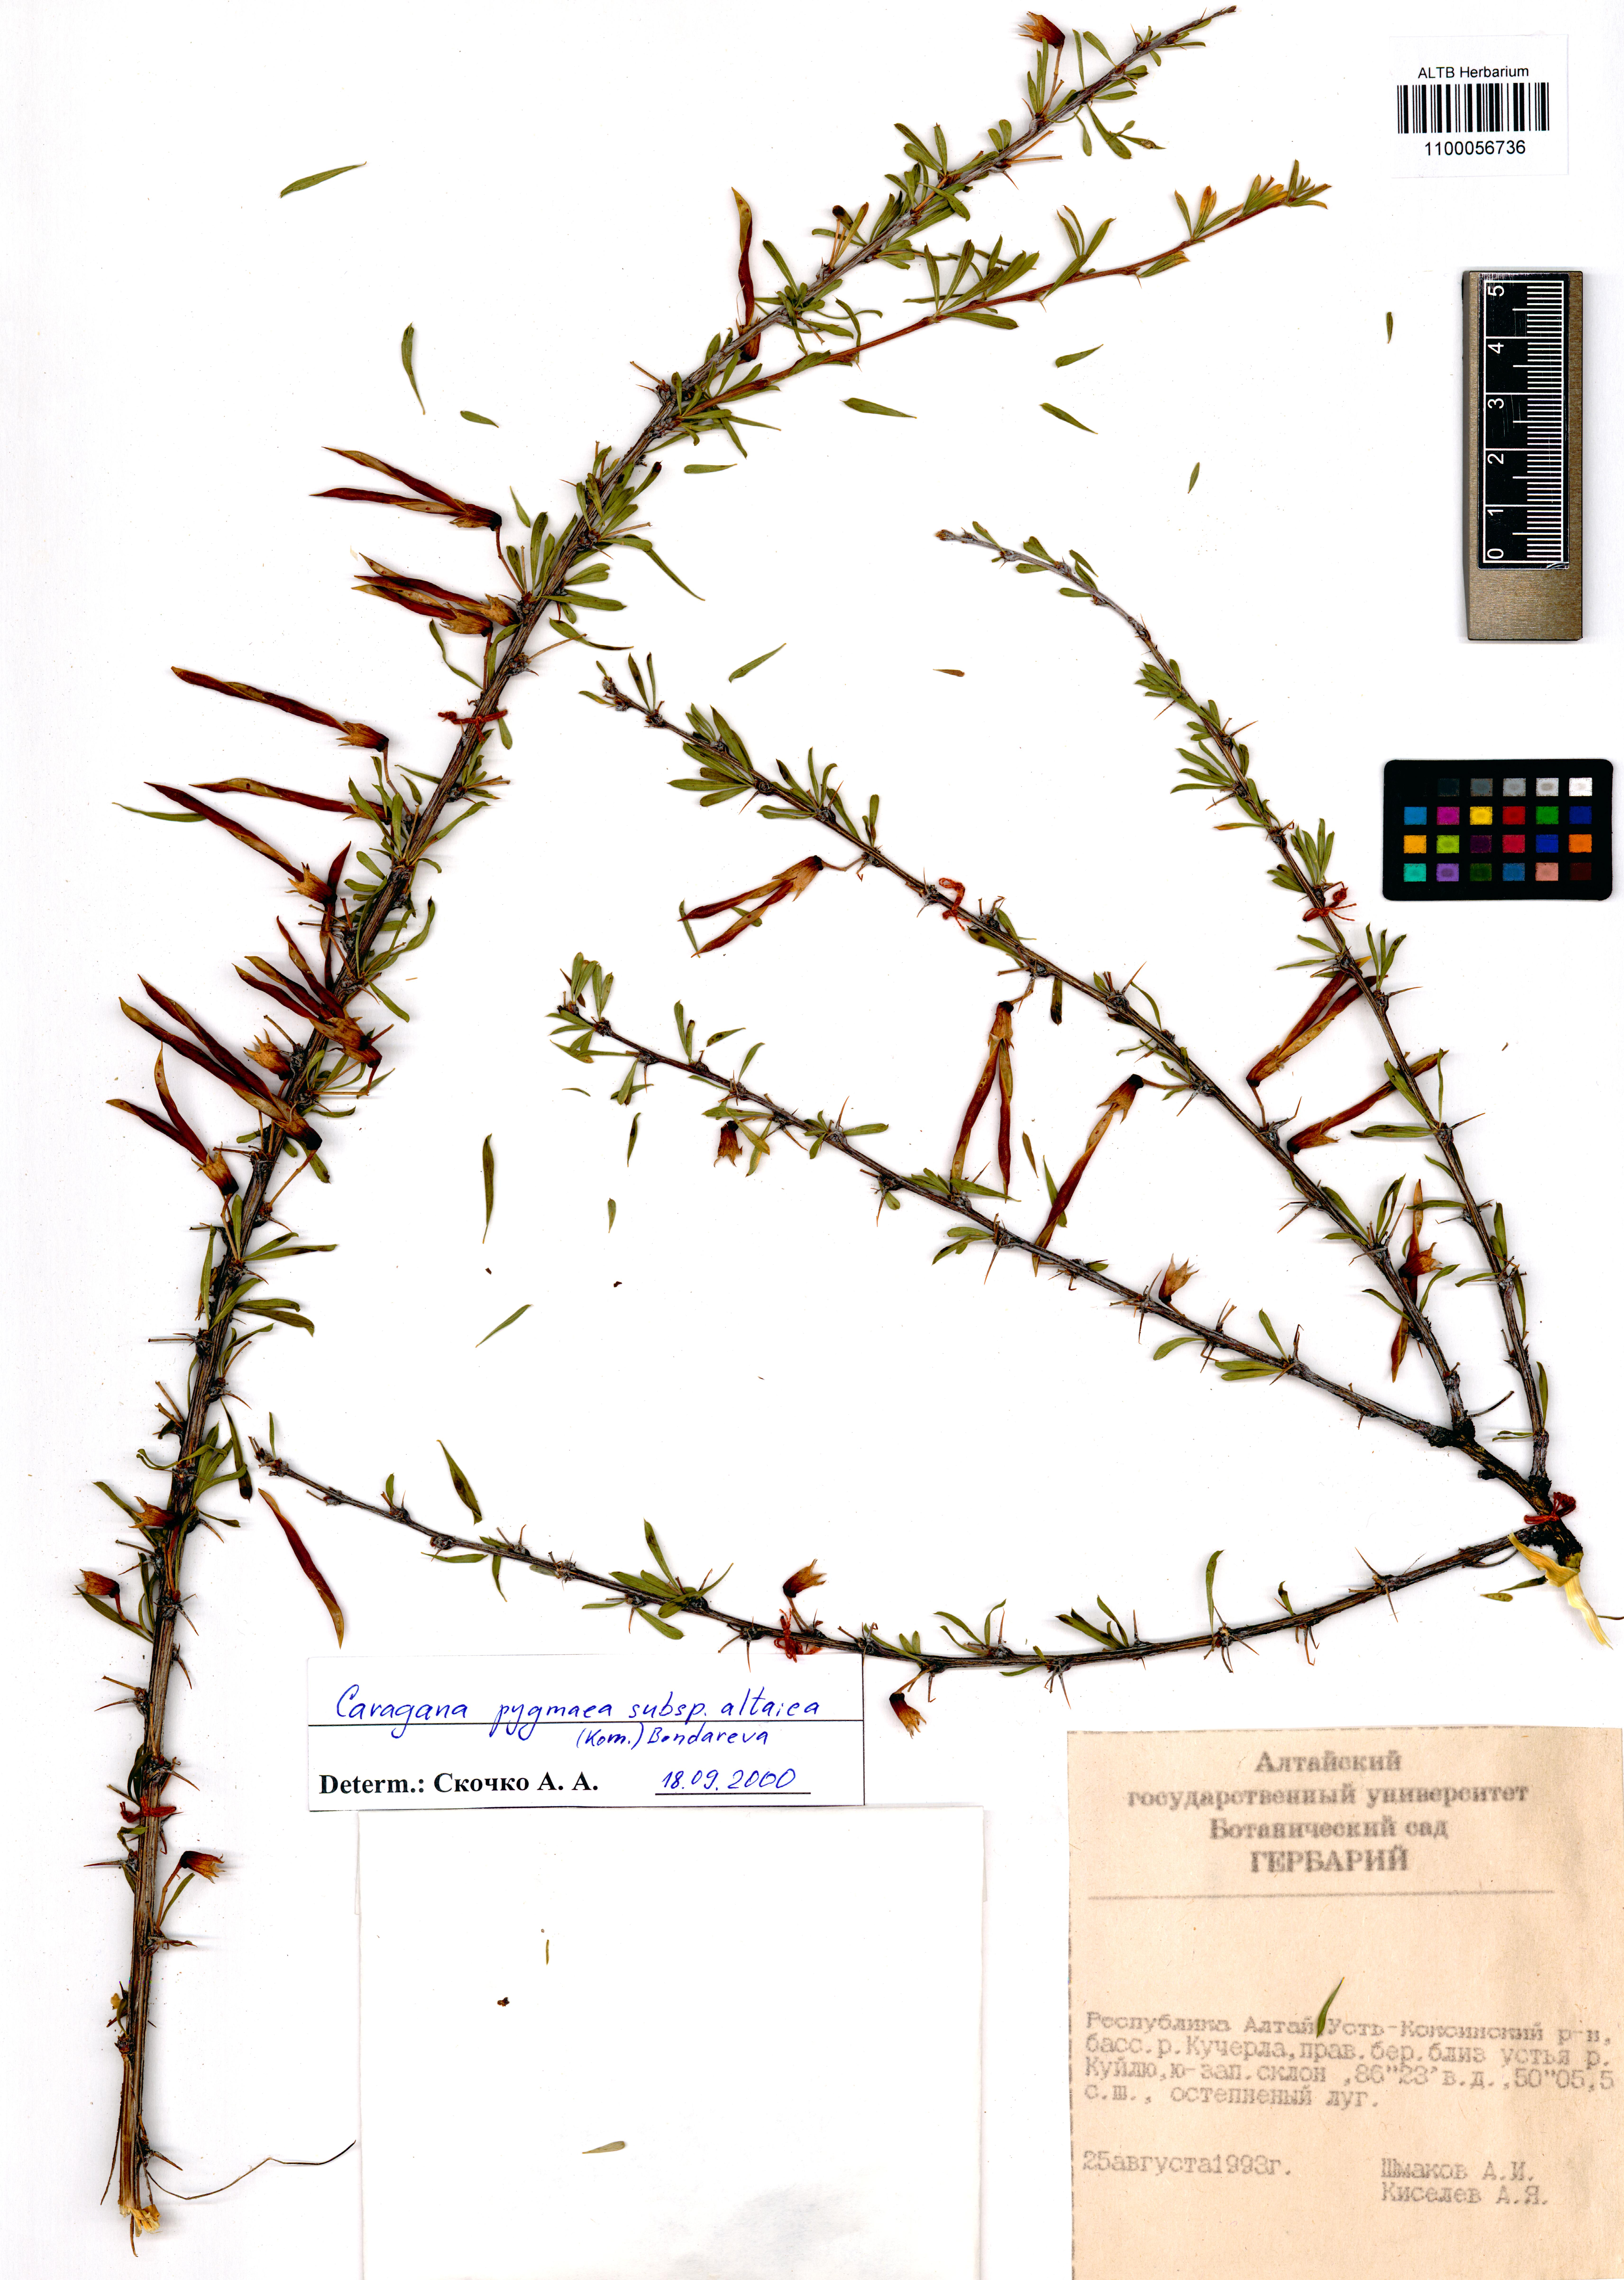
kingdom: Plantae
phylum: Tracheophyta
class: Magnoliopsida
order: Fabales
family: Fabaceae
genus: Caragana
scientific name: Caragana pygmaea
